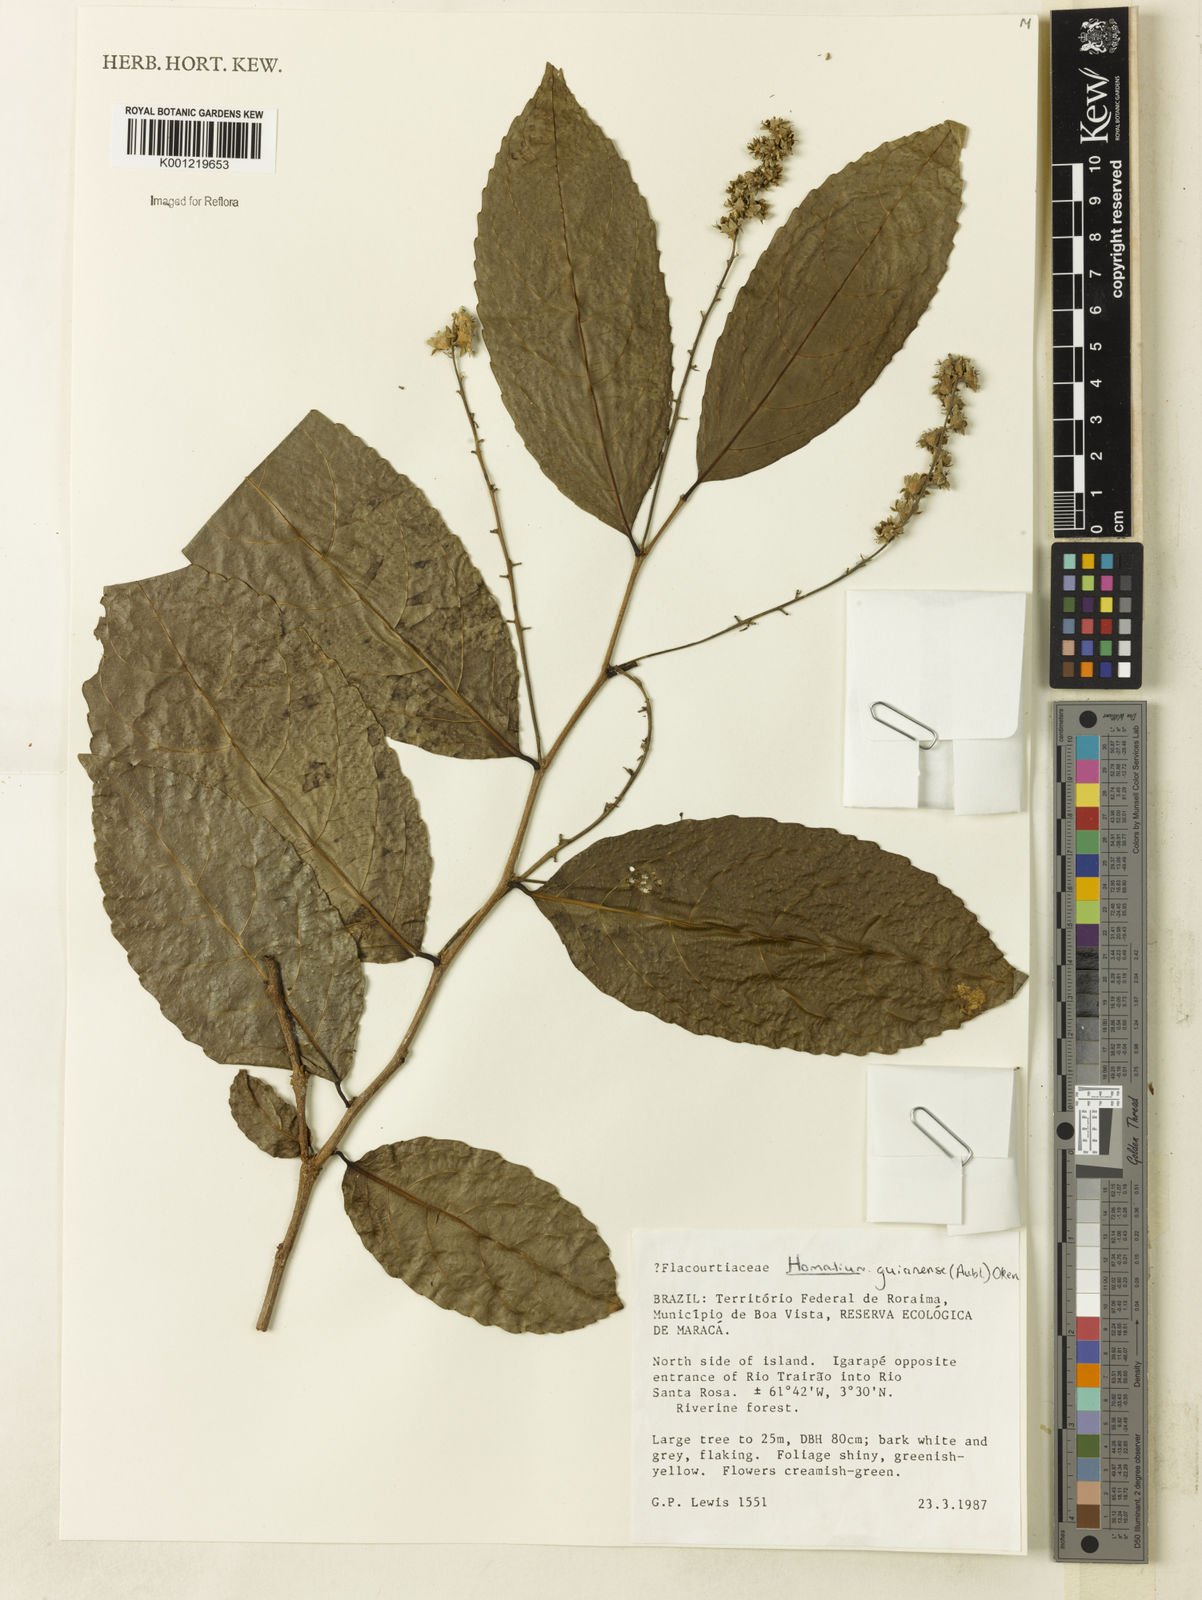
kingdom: Plantae
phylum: Tracheophyta
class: Magnoliopsida
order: Malpighiales
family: Salicaceae
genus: Homalium
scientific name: Homalium guianense
